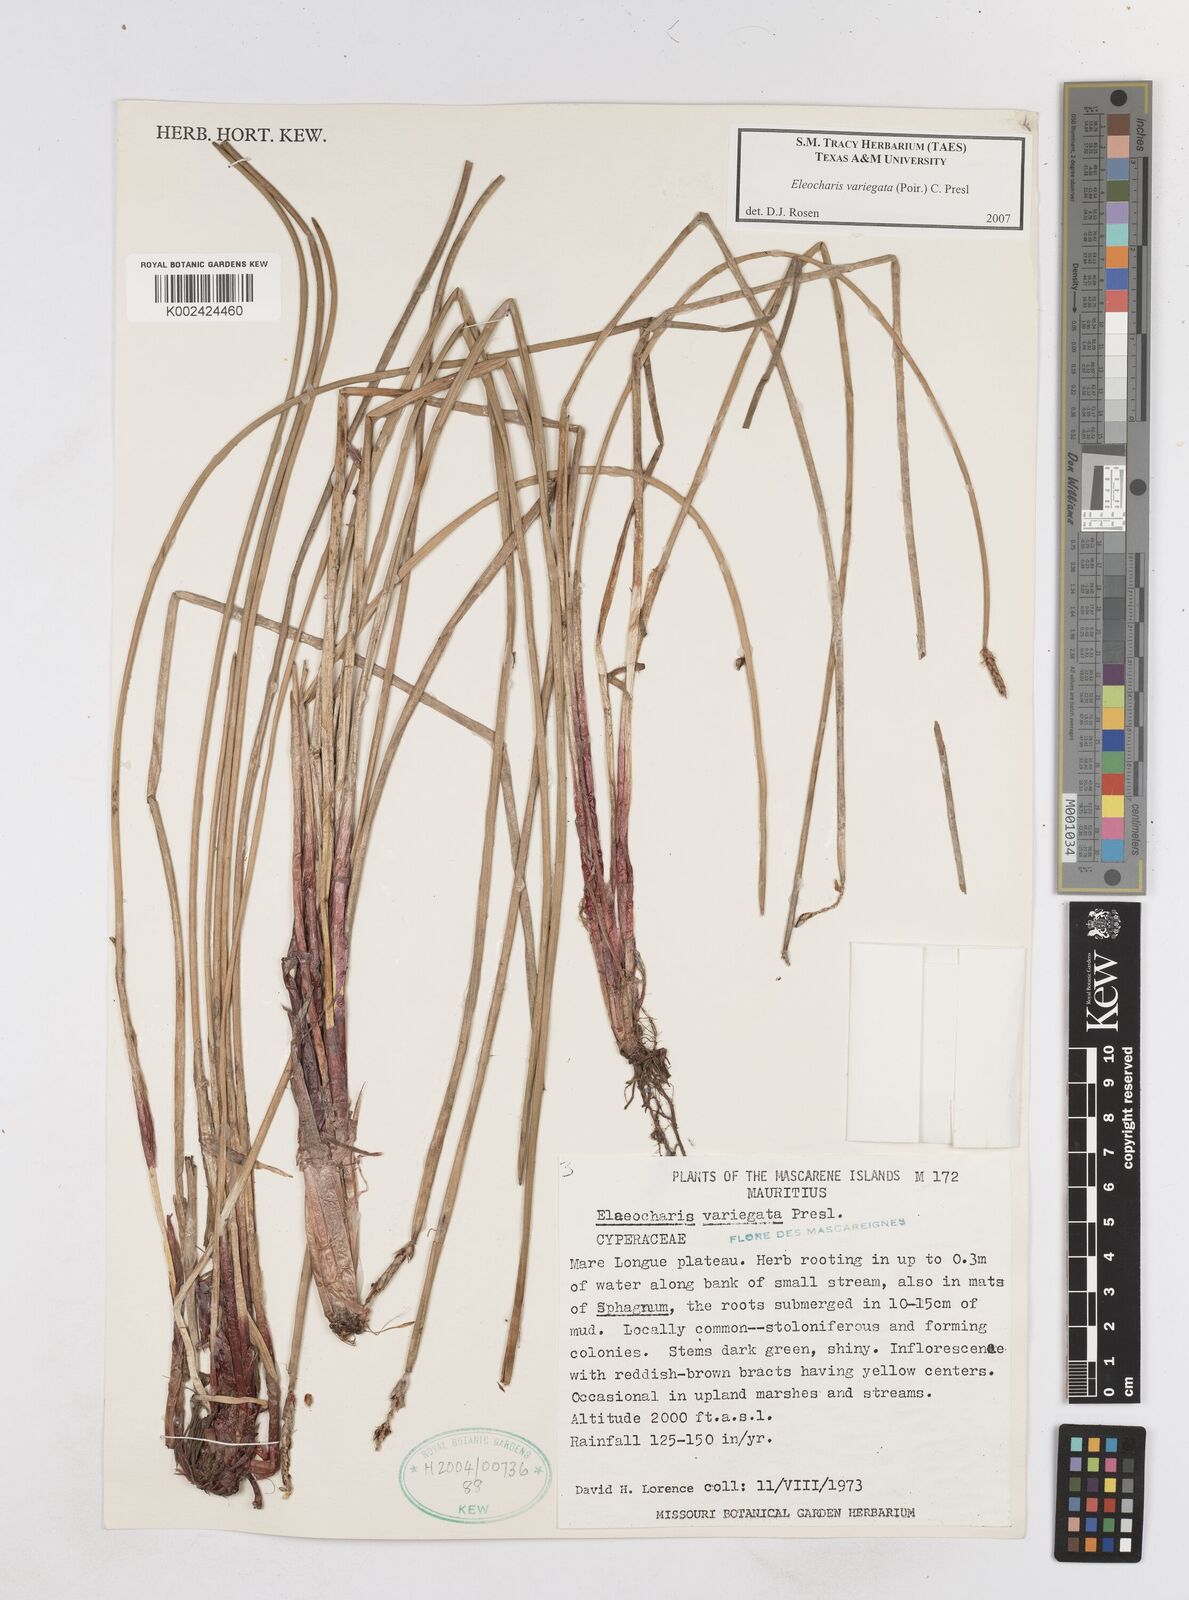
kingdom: Plantae
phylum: Tracheophyta
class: Liliopsida
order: Poales
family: Cyperaceae
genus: Eleocharis
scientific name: Eleocharis variegata
